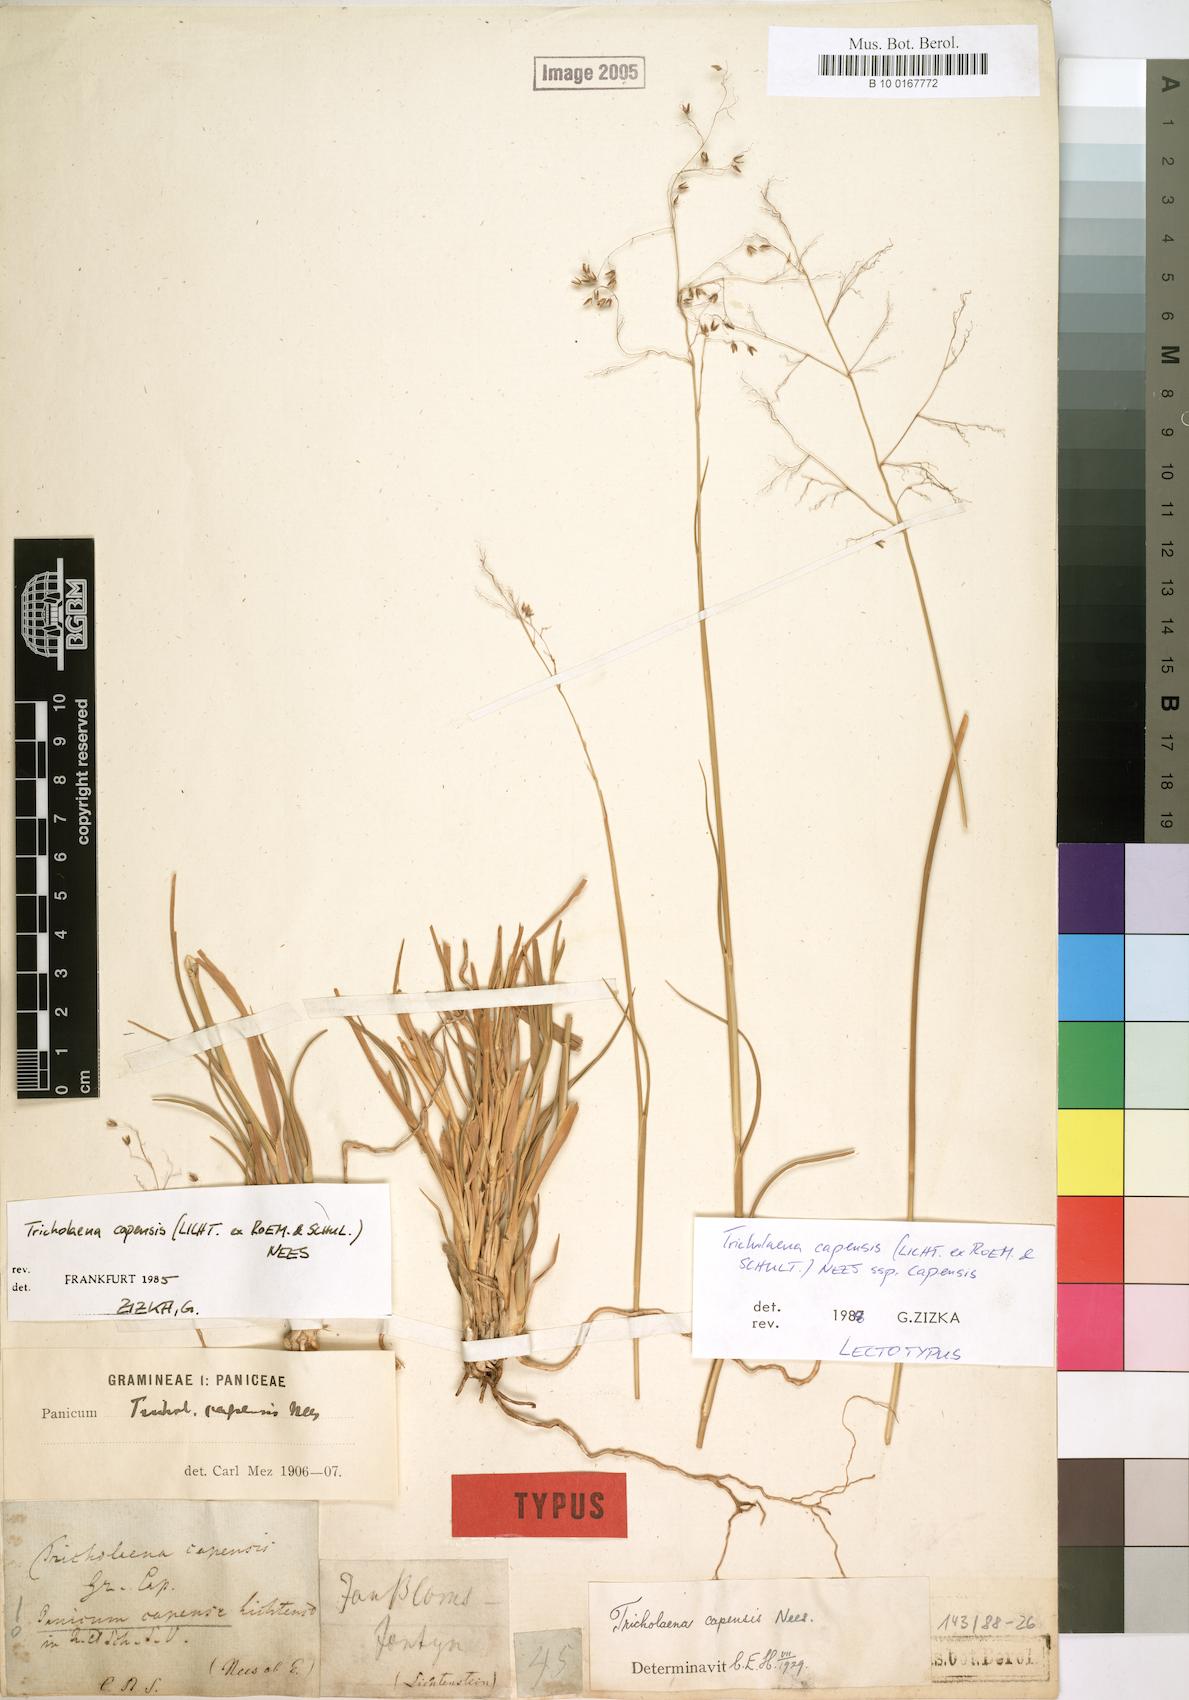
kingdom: Plantae
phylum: Tracheophyta
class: Liliopsida
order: Poales
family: Poaceae
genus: Tricholaena
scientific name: Tricholaena capensis
